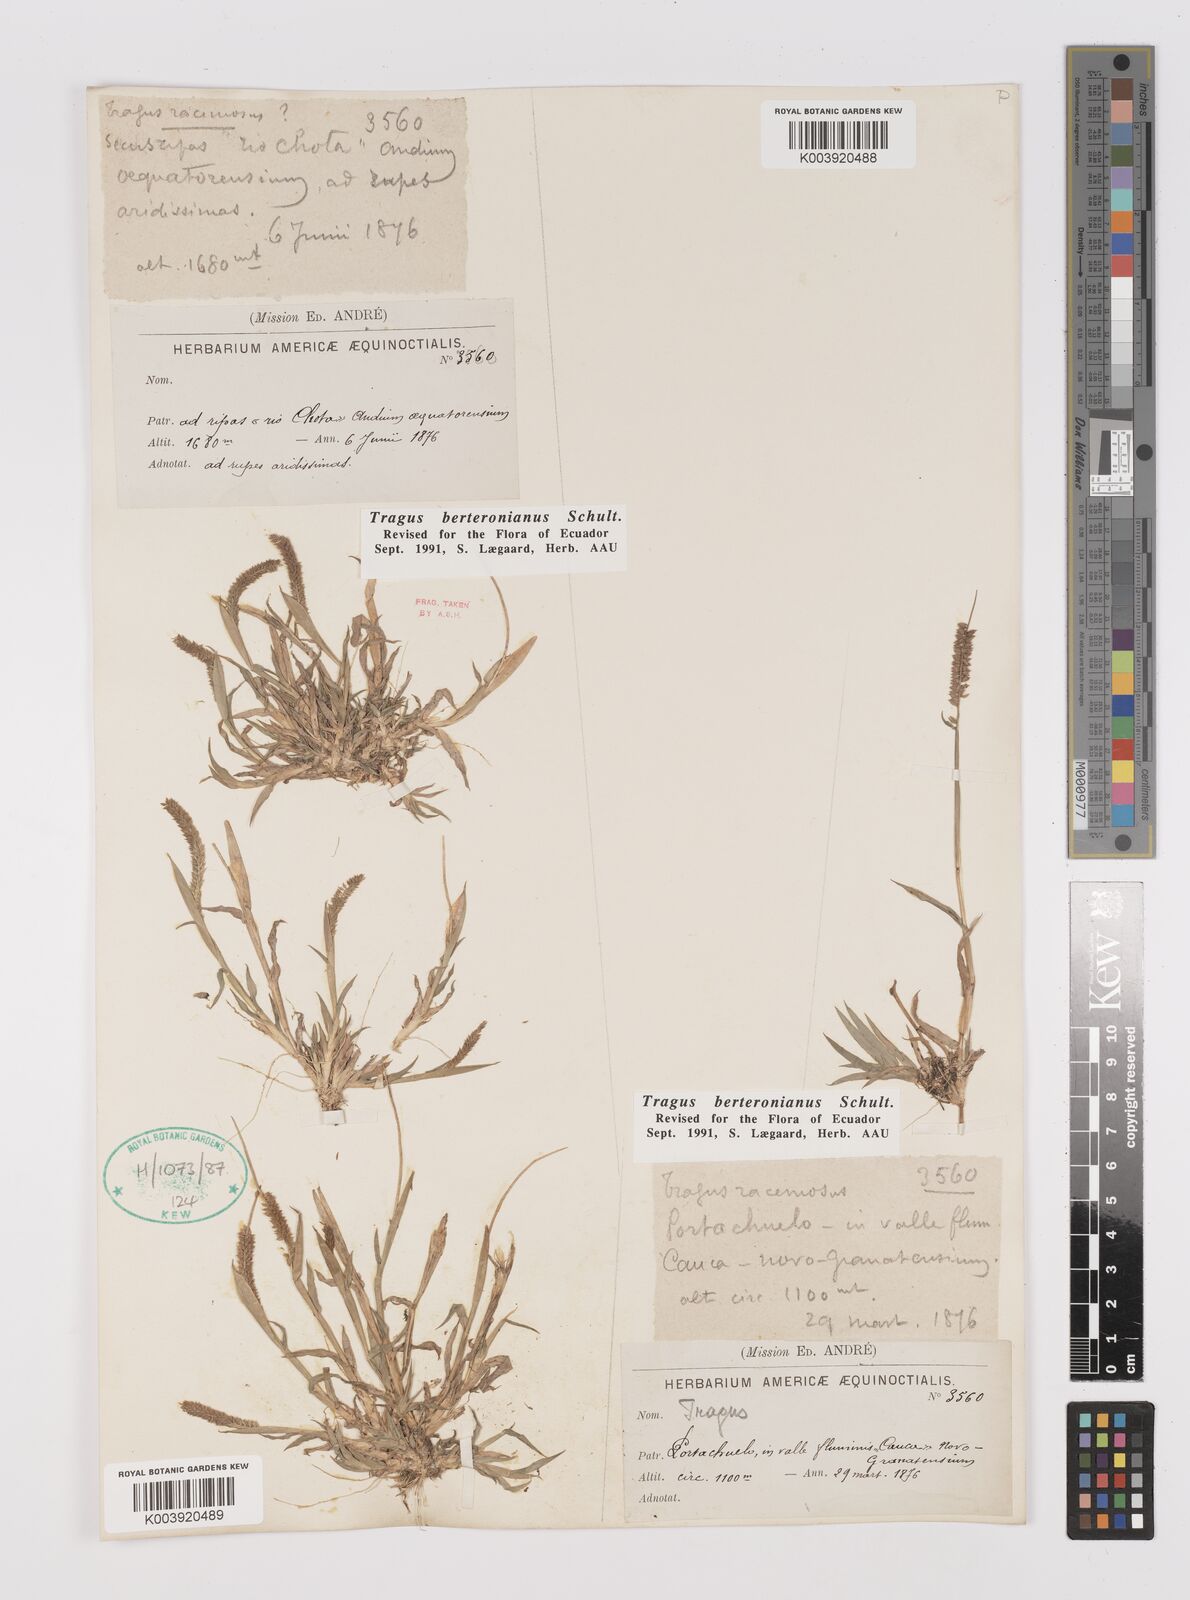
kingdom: Plantae
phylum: Tracheophyta
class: Liliopsida
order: Poales
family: Poaceae
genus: Tragus
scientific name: Tragus berteronianus
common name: African bur-grass
